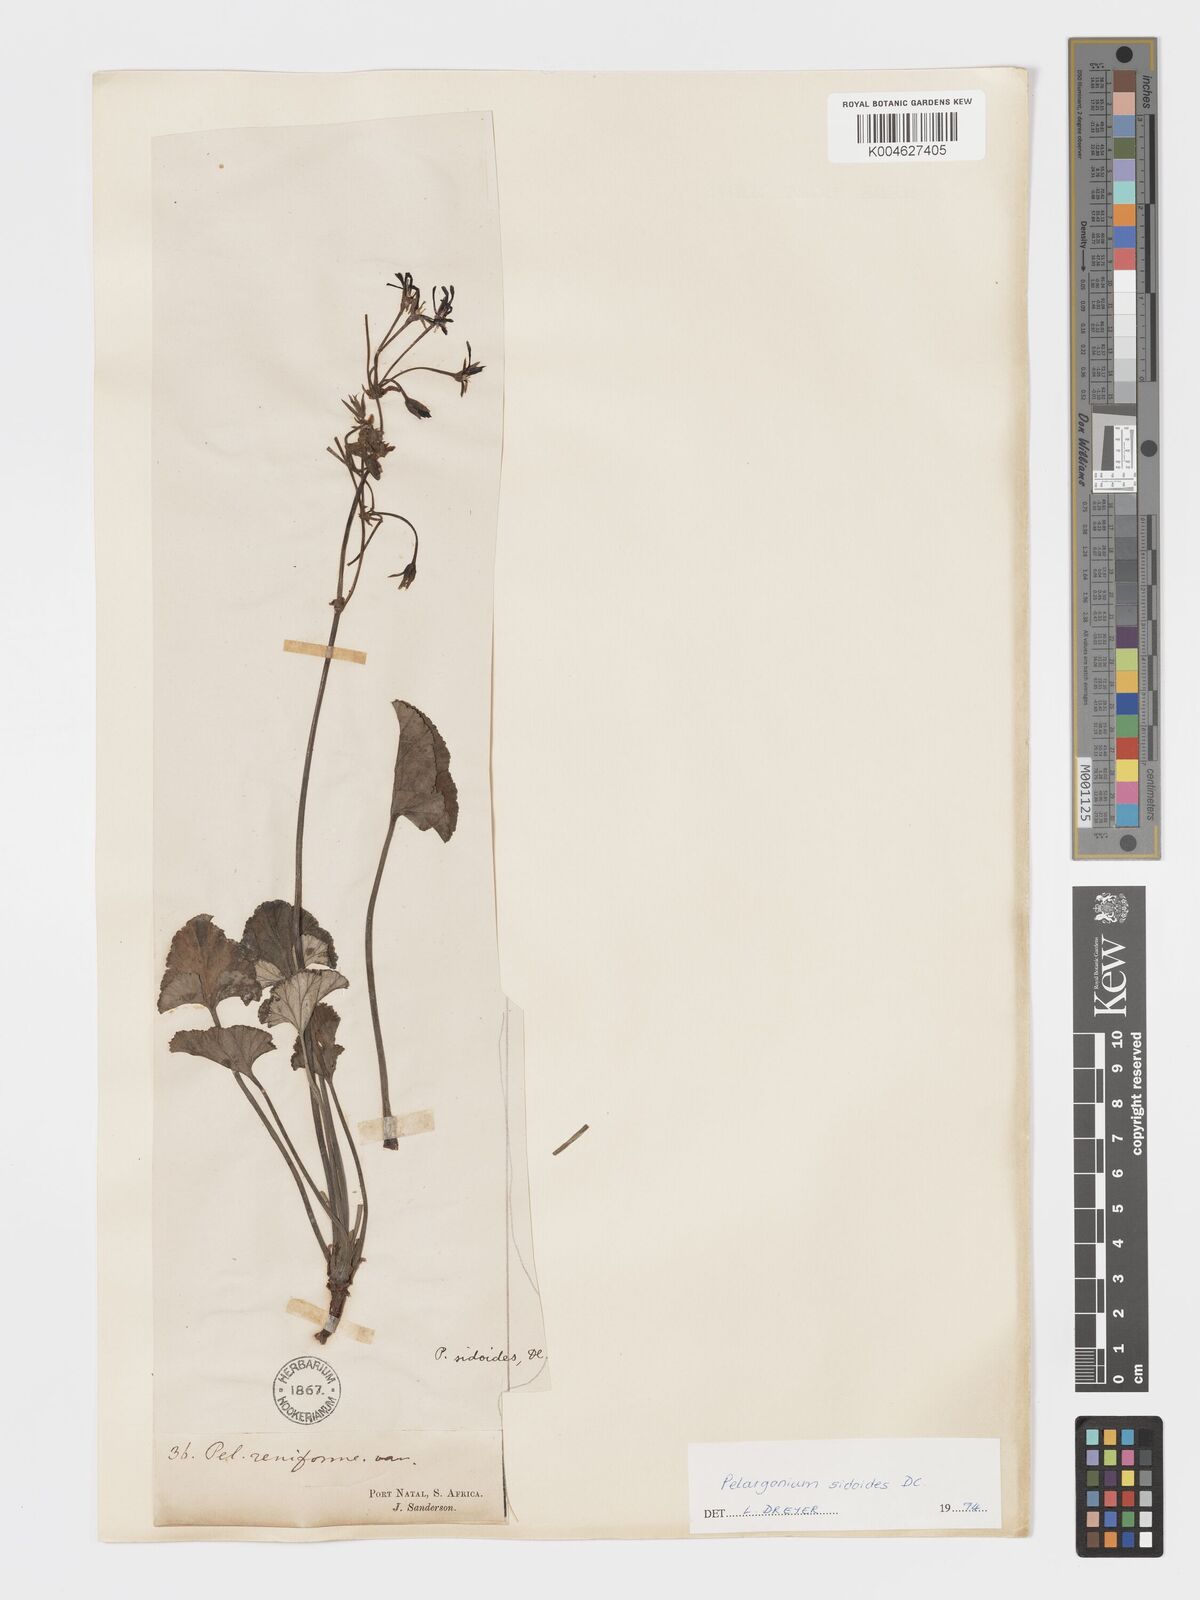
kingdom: Plantae
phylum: Tracheophyta
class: Magnoliopsida
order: Geraniales
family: Geraniaceae
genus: Pelargonium
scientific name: Pelargonium sidoides
